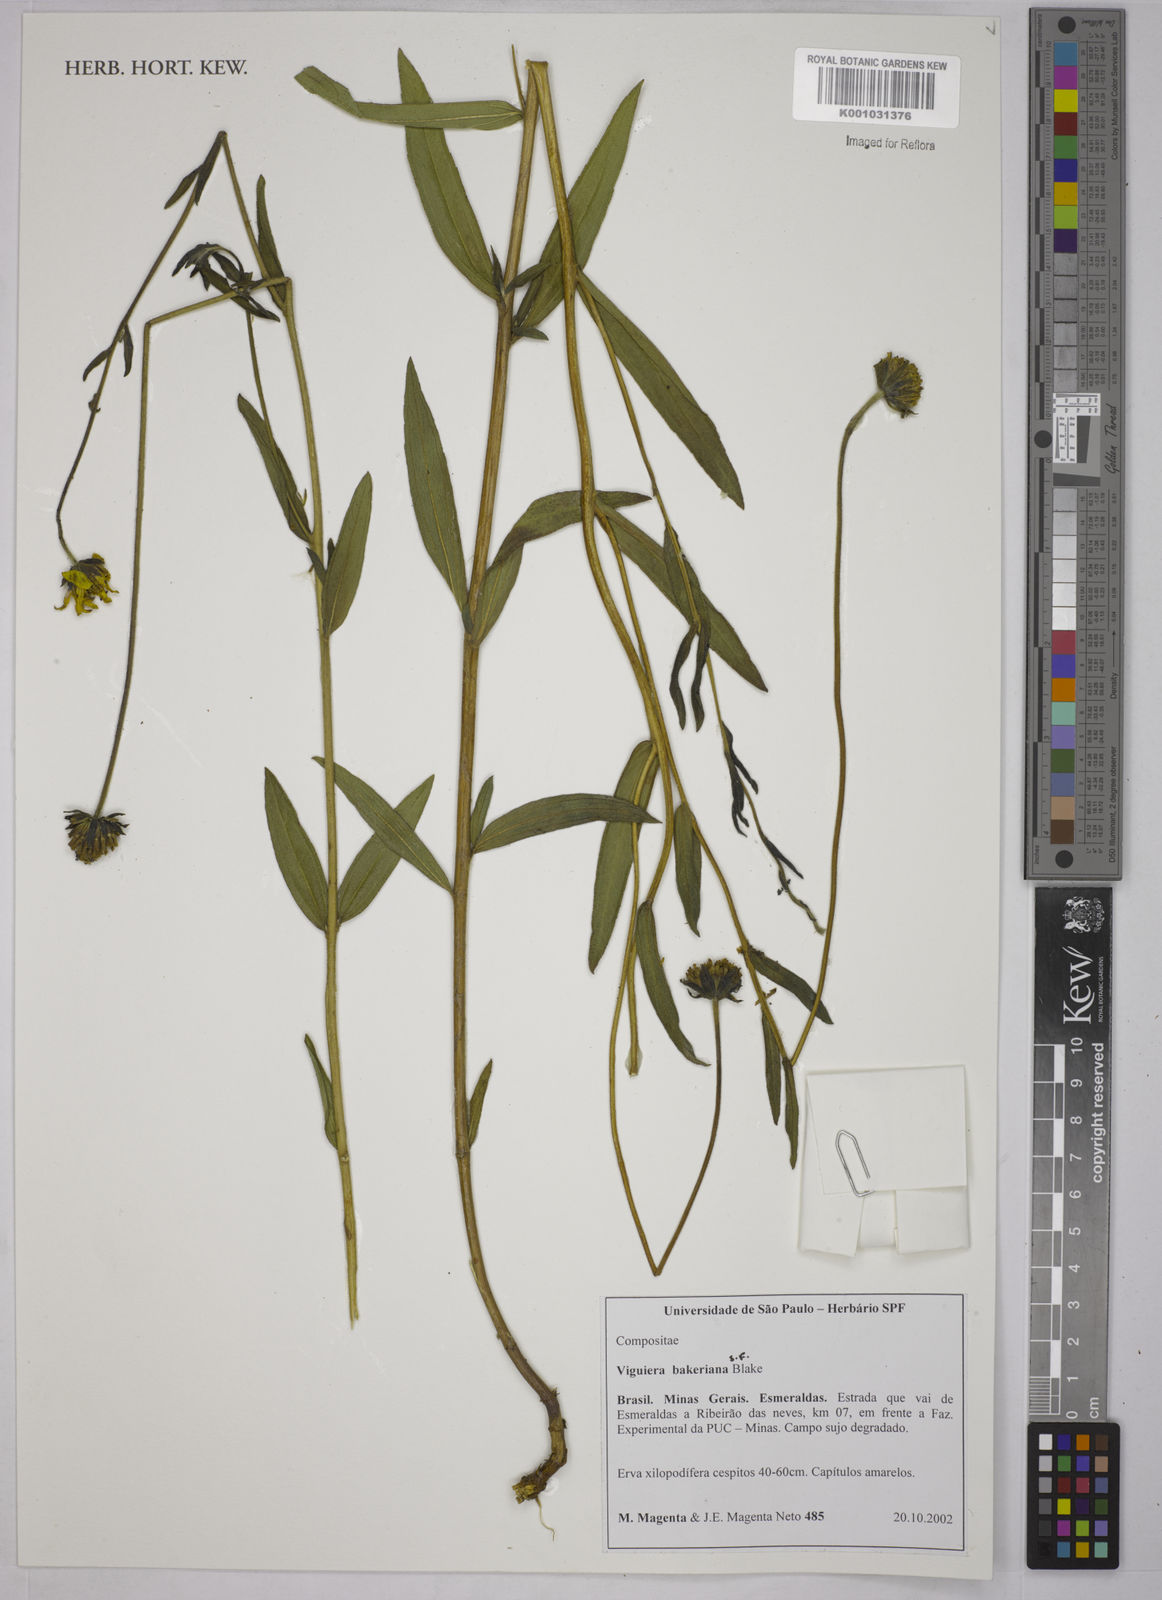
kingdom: Plantae
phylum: Tracheophyta
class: Magnoliopsida
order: Asterales
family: Asteraceae
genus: Aldama
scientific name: Aldama bakeriana
